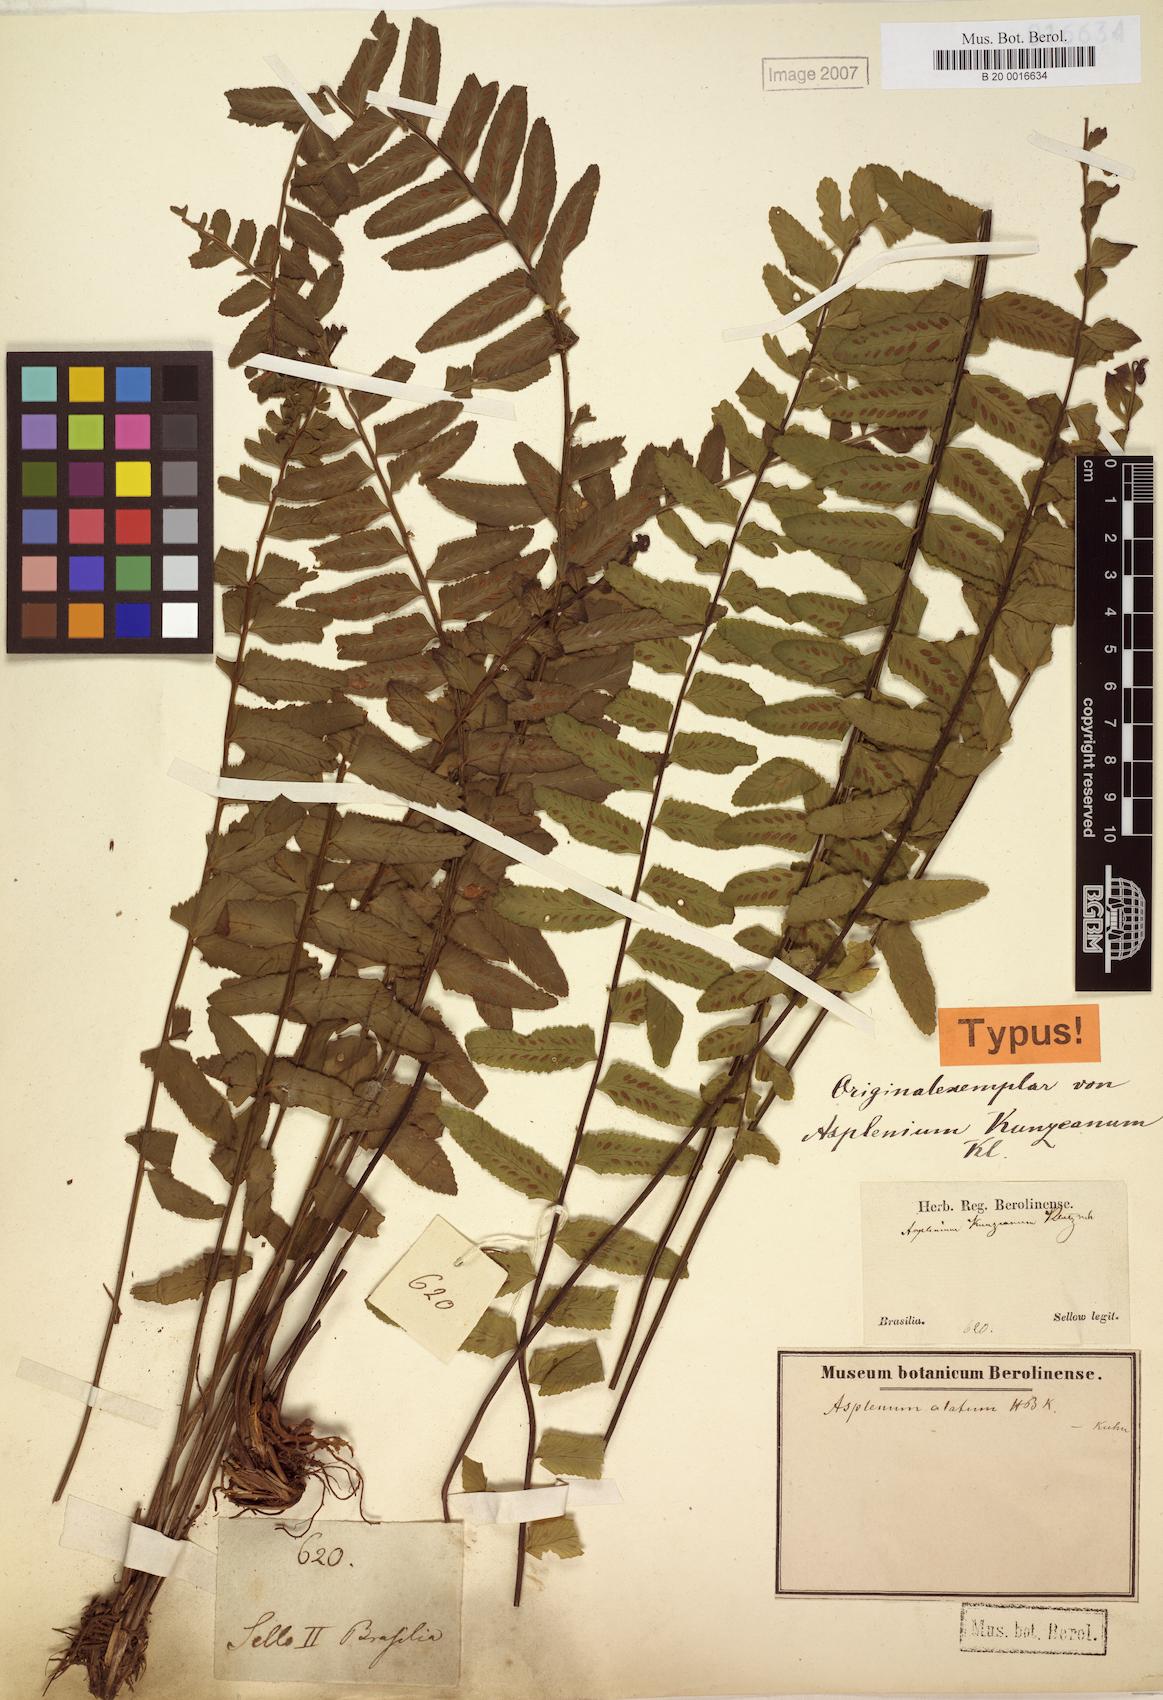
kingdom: Plantae
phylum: Tracheophyta
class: Polypodiopsida
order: Polypodiales
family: Aspleniaceae
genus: Asplenium
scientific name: Asplenium kunzeanum
